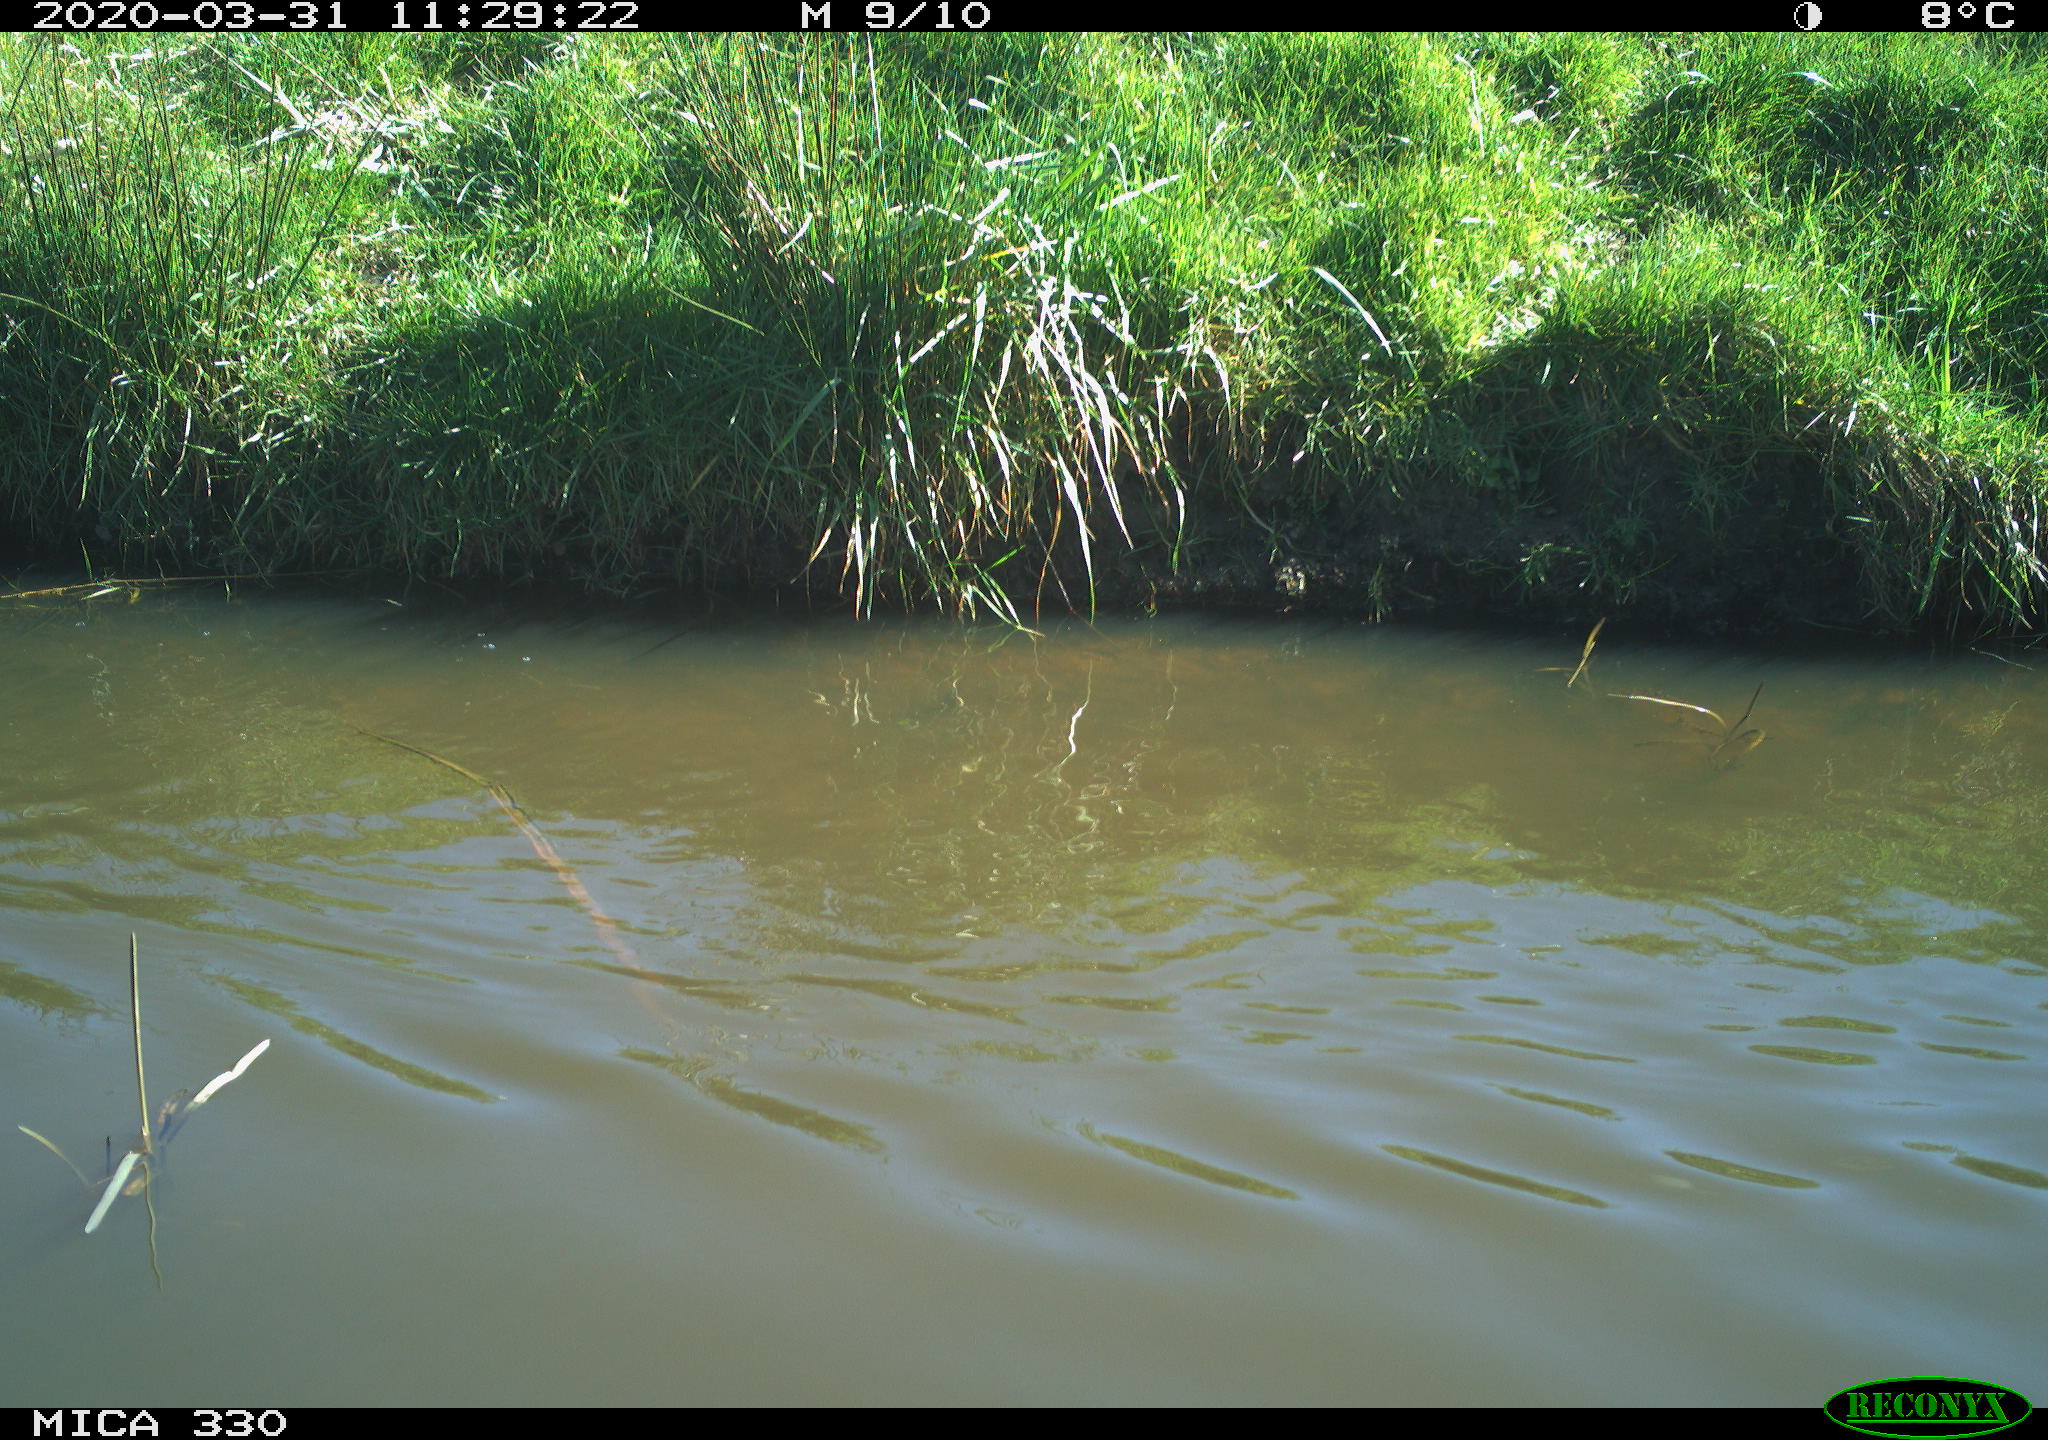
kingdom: Animalia
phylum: Chordata
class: Aves
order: Anseriformes
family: Anatidae
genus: Anas
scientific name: Anas platyrhynchos
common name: Mallard
